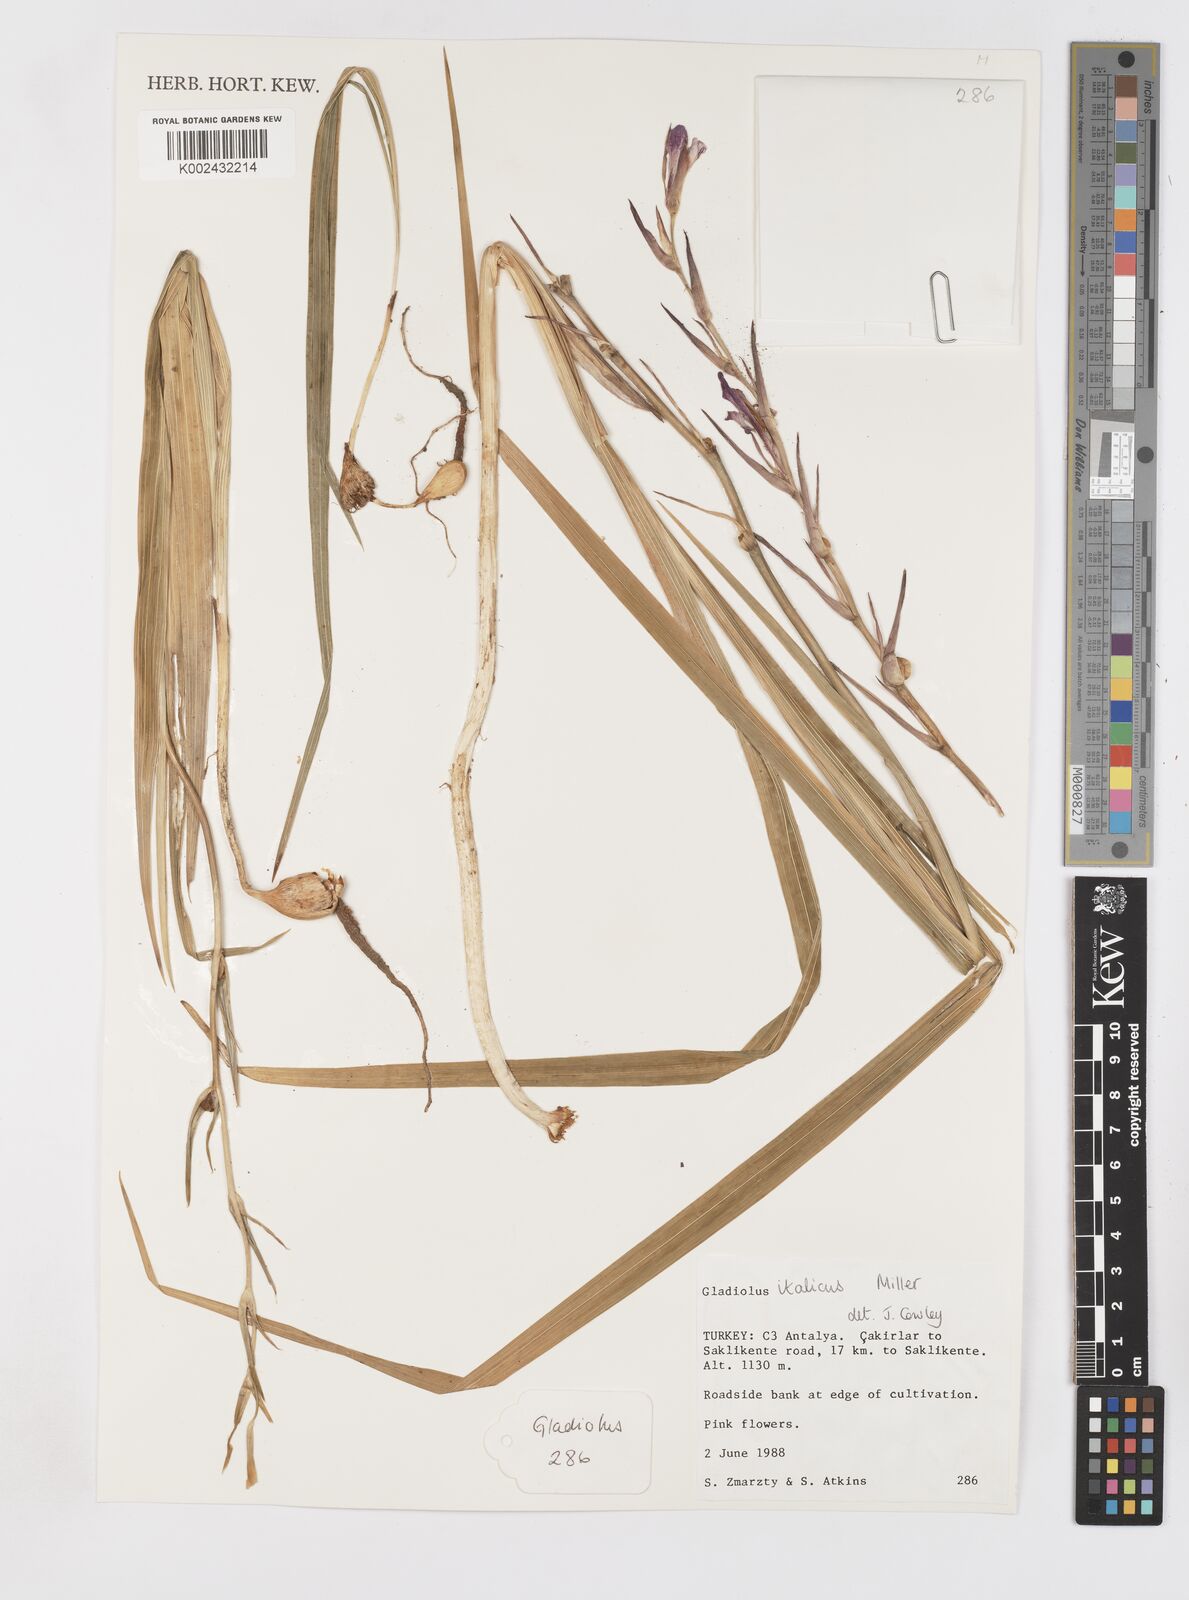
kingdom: Plantae
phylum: Tracheophyta
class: Liliopsida
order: Asparagales
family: Iridaceae
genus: Gladiolus
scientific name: Gladiolus italicus
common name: Field gladiolus
